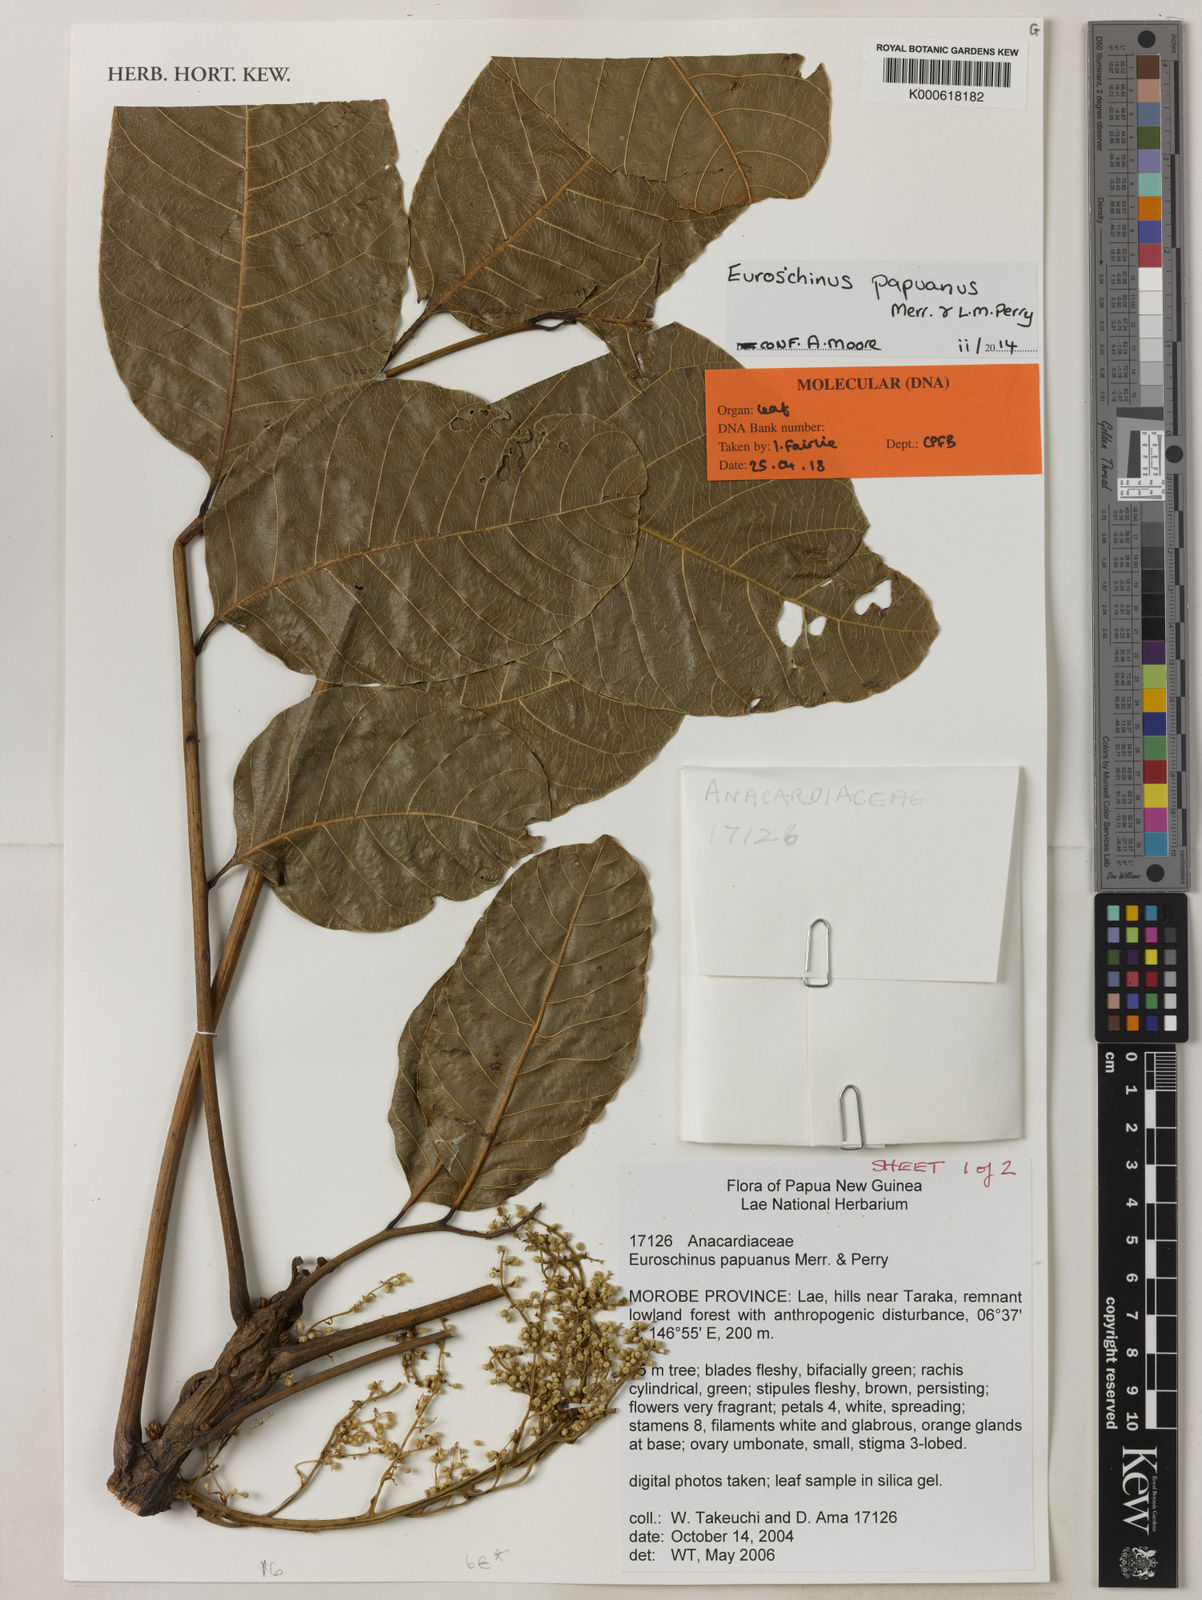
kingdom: Plantae
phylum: Tracheophyta
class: Magnoliopsida
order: Sapindales
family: Anacardiaceae
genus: Euroschinus
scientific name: Euroschinus
